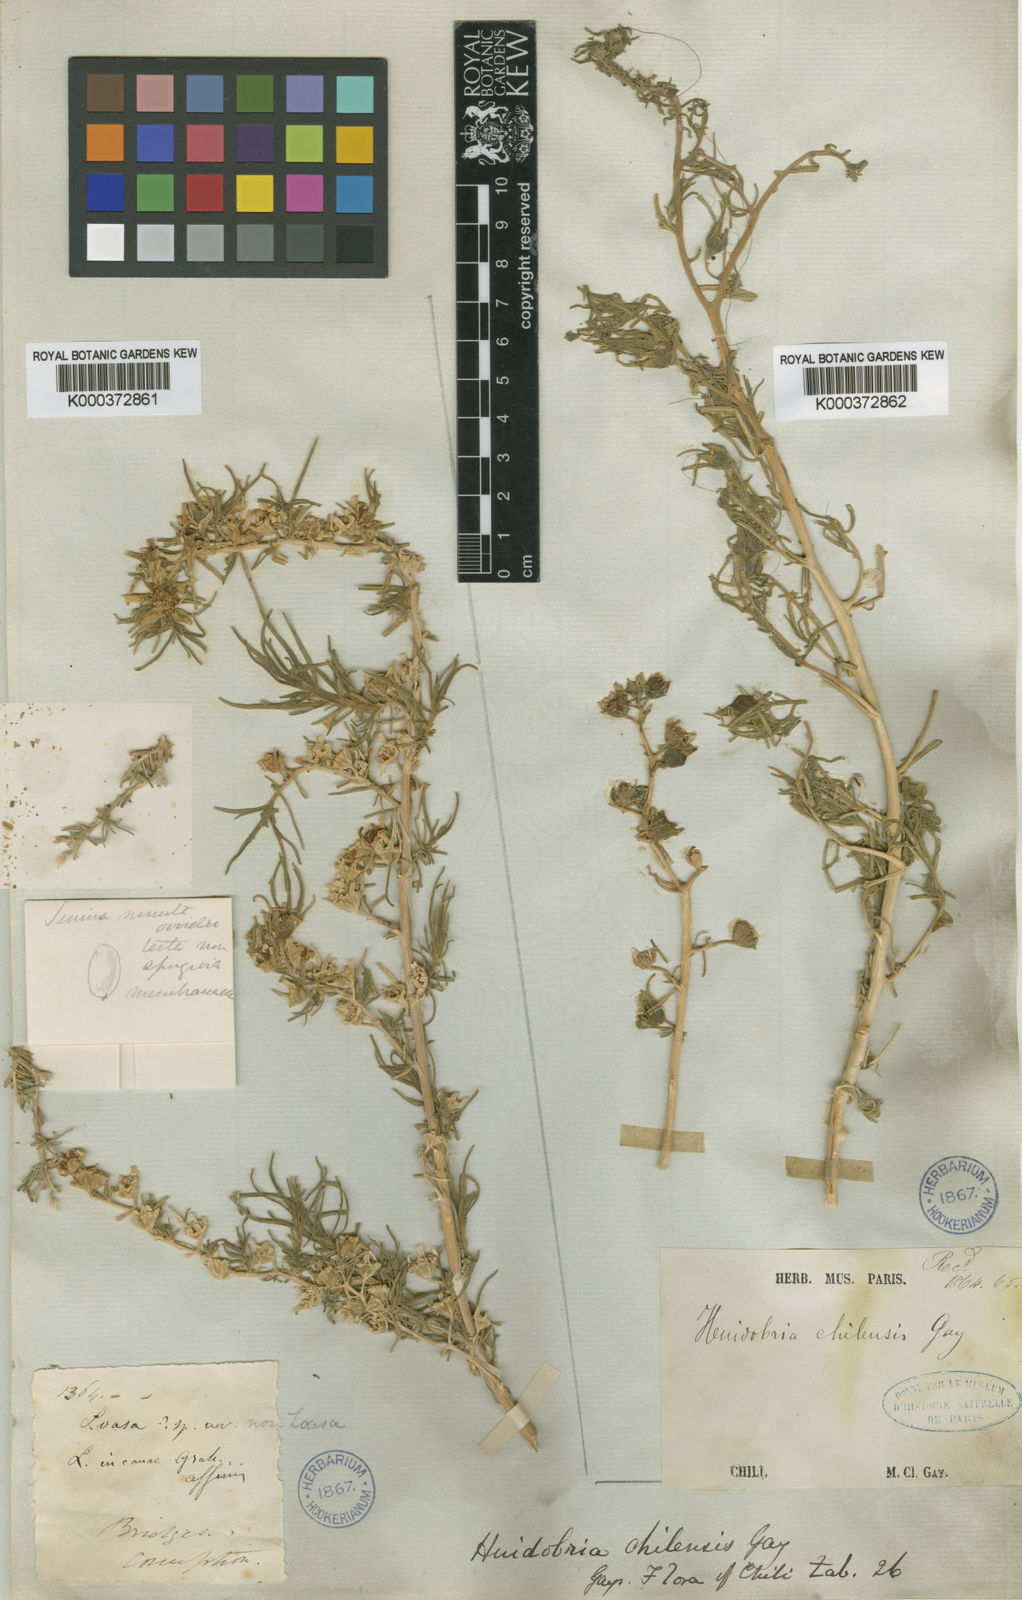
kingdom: Plantae
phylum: Tracheophyta
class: Magnoliopsida
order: Cornales
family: Loasaceae
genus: Huidobria
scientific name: Huidobria chilensis
